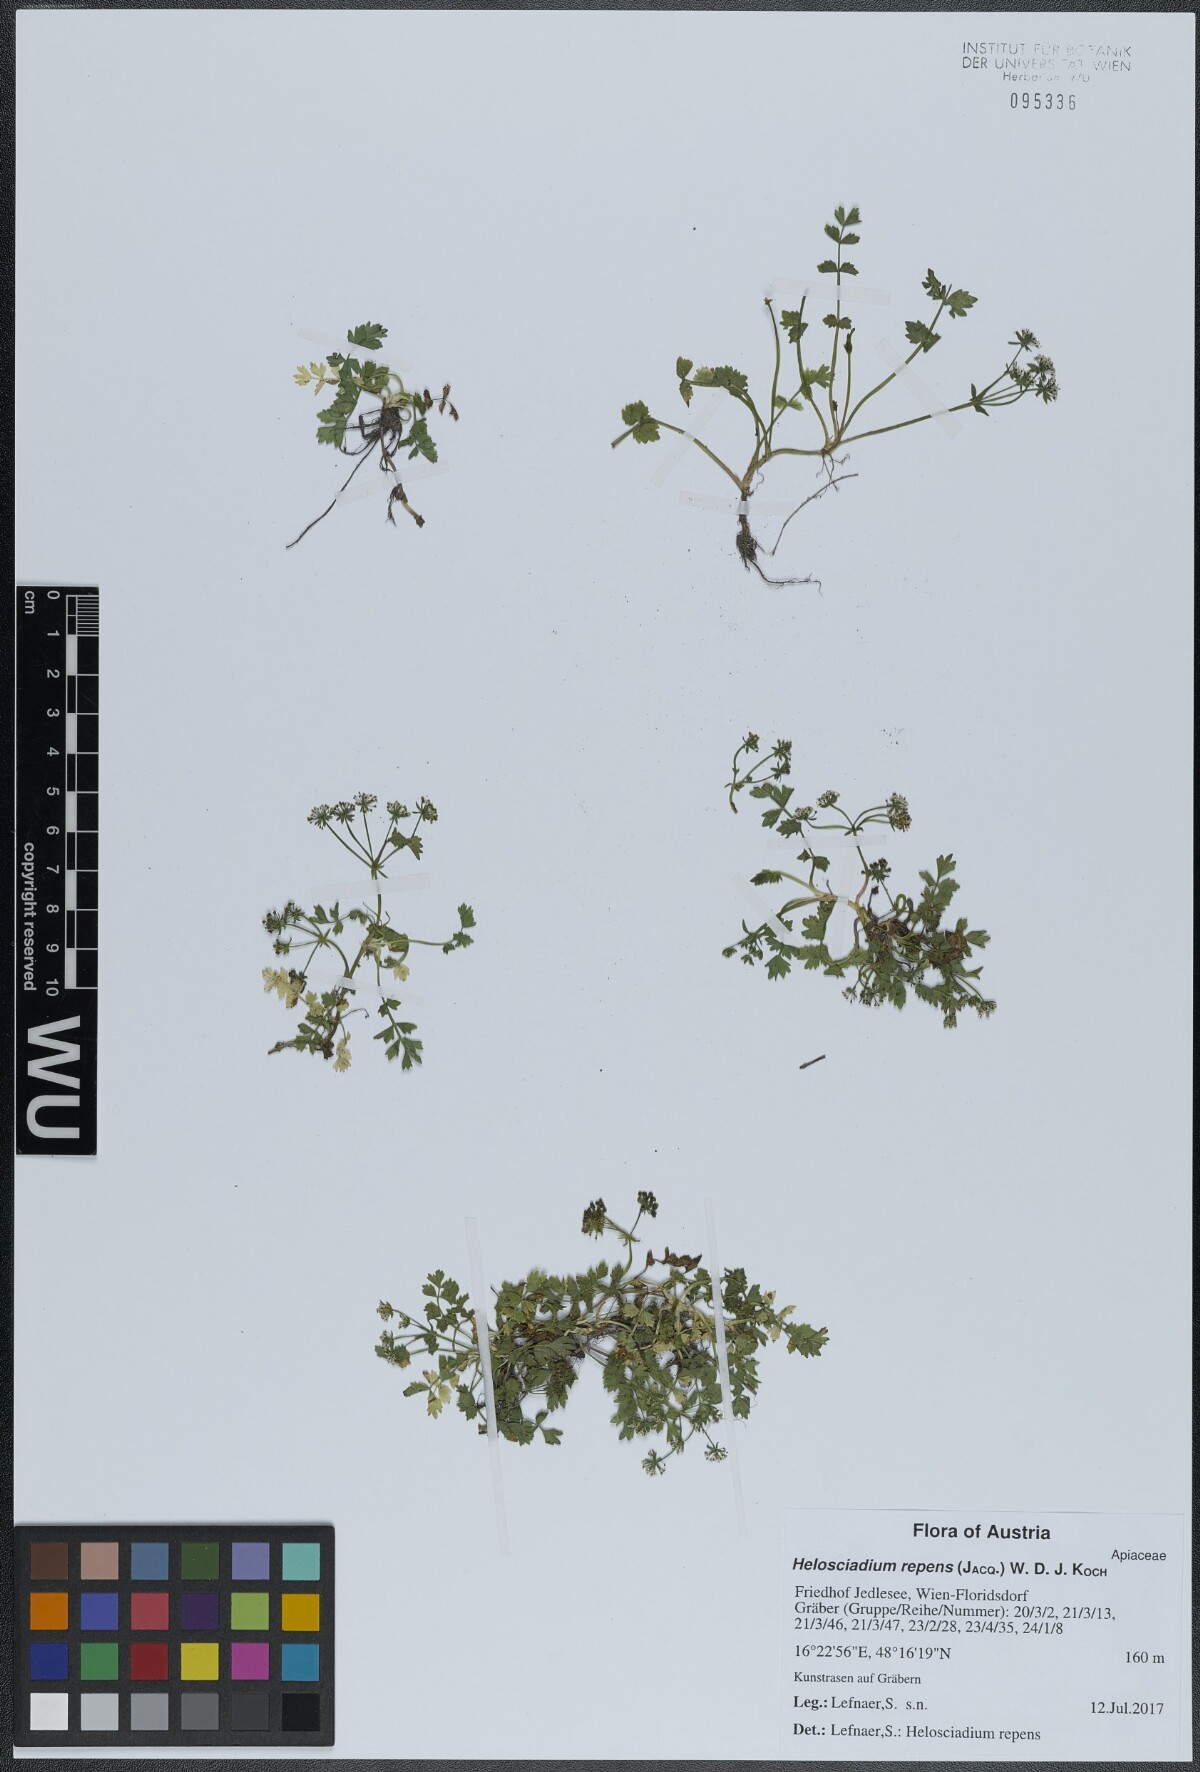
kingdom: Plantae
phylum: Tracheophyta
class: Magnoliopsida
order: Apiales
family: Apiaceae
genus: Helosciadium
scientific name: Helosciadium repens
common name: Creeping marshwort
